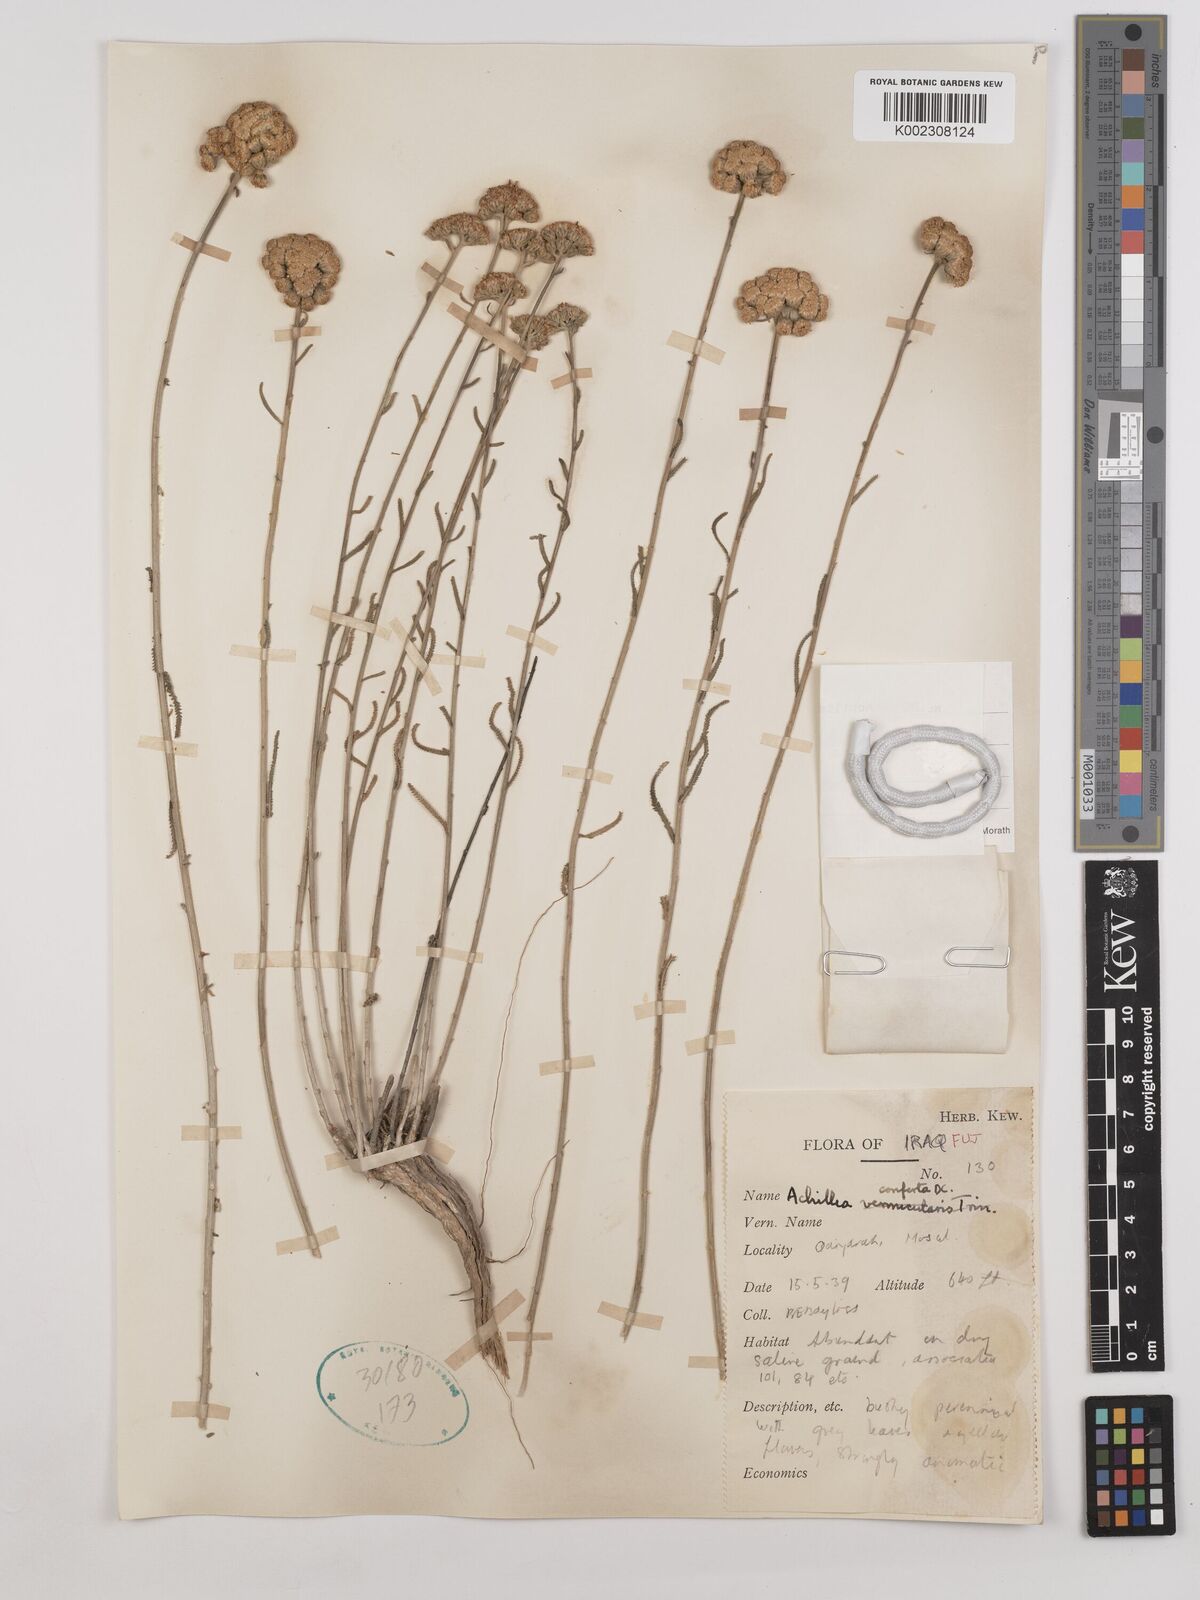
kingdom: Plantae
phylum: Tracheophyta
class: Magnoliopsida
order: Asterales
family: Asteraceae
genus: Achillea
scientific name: Achillea conferta
